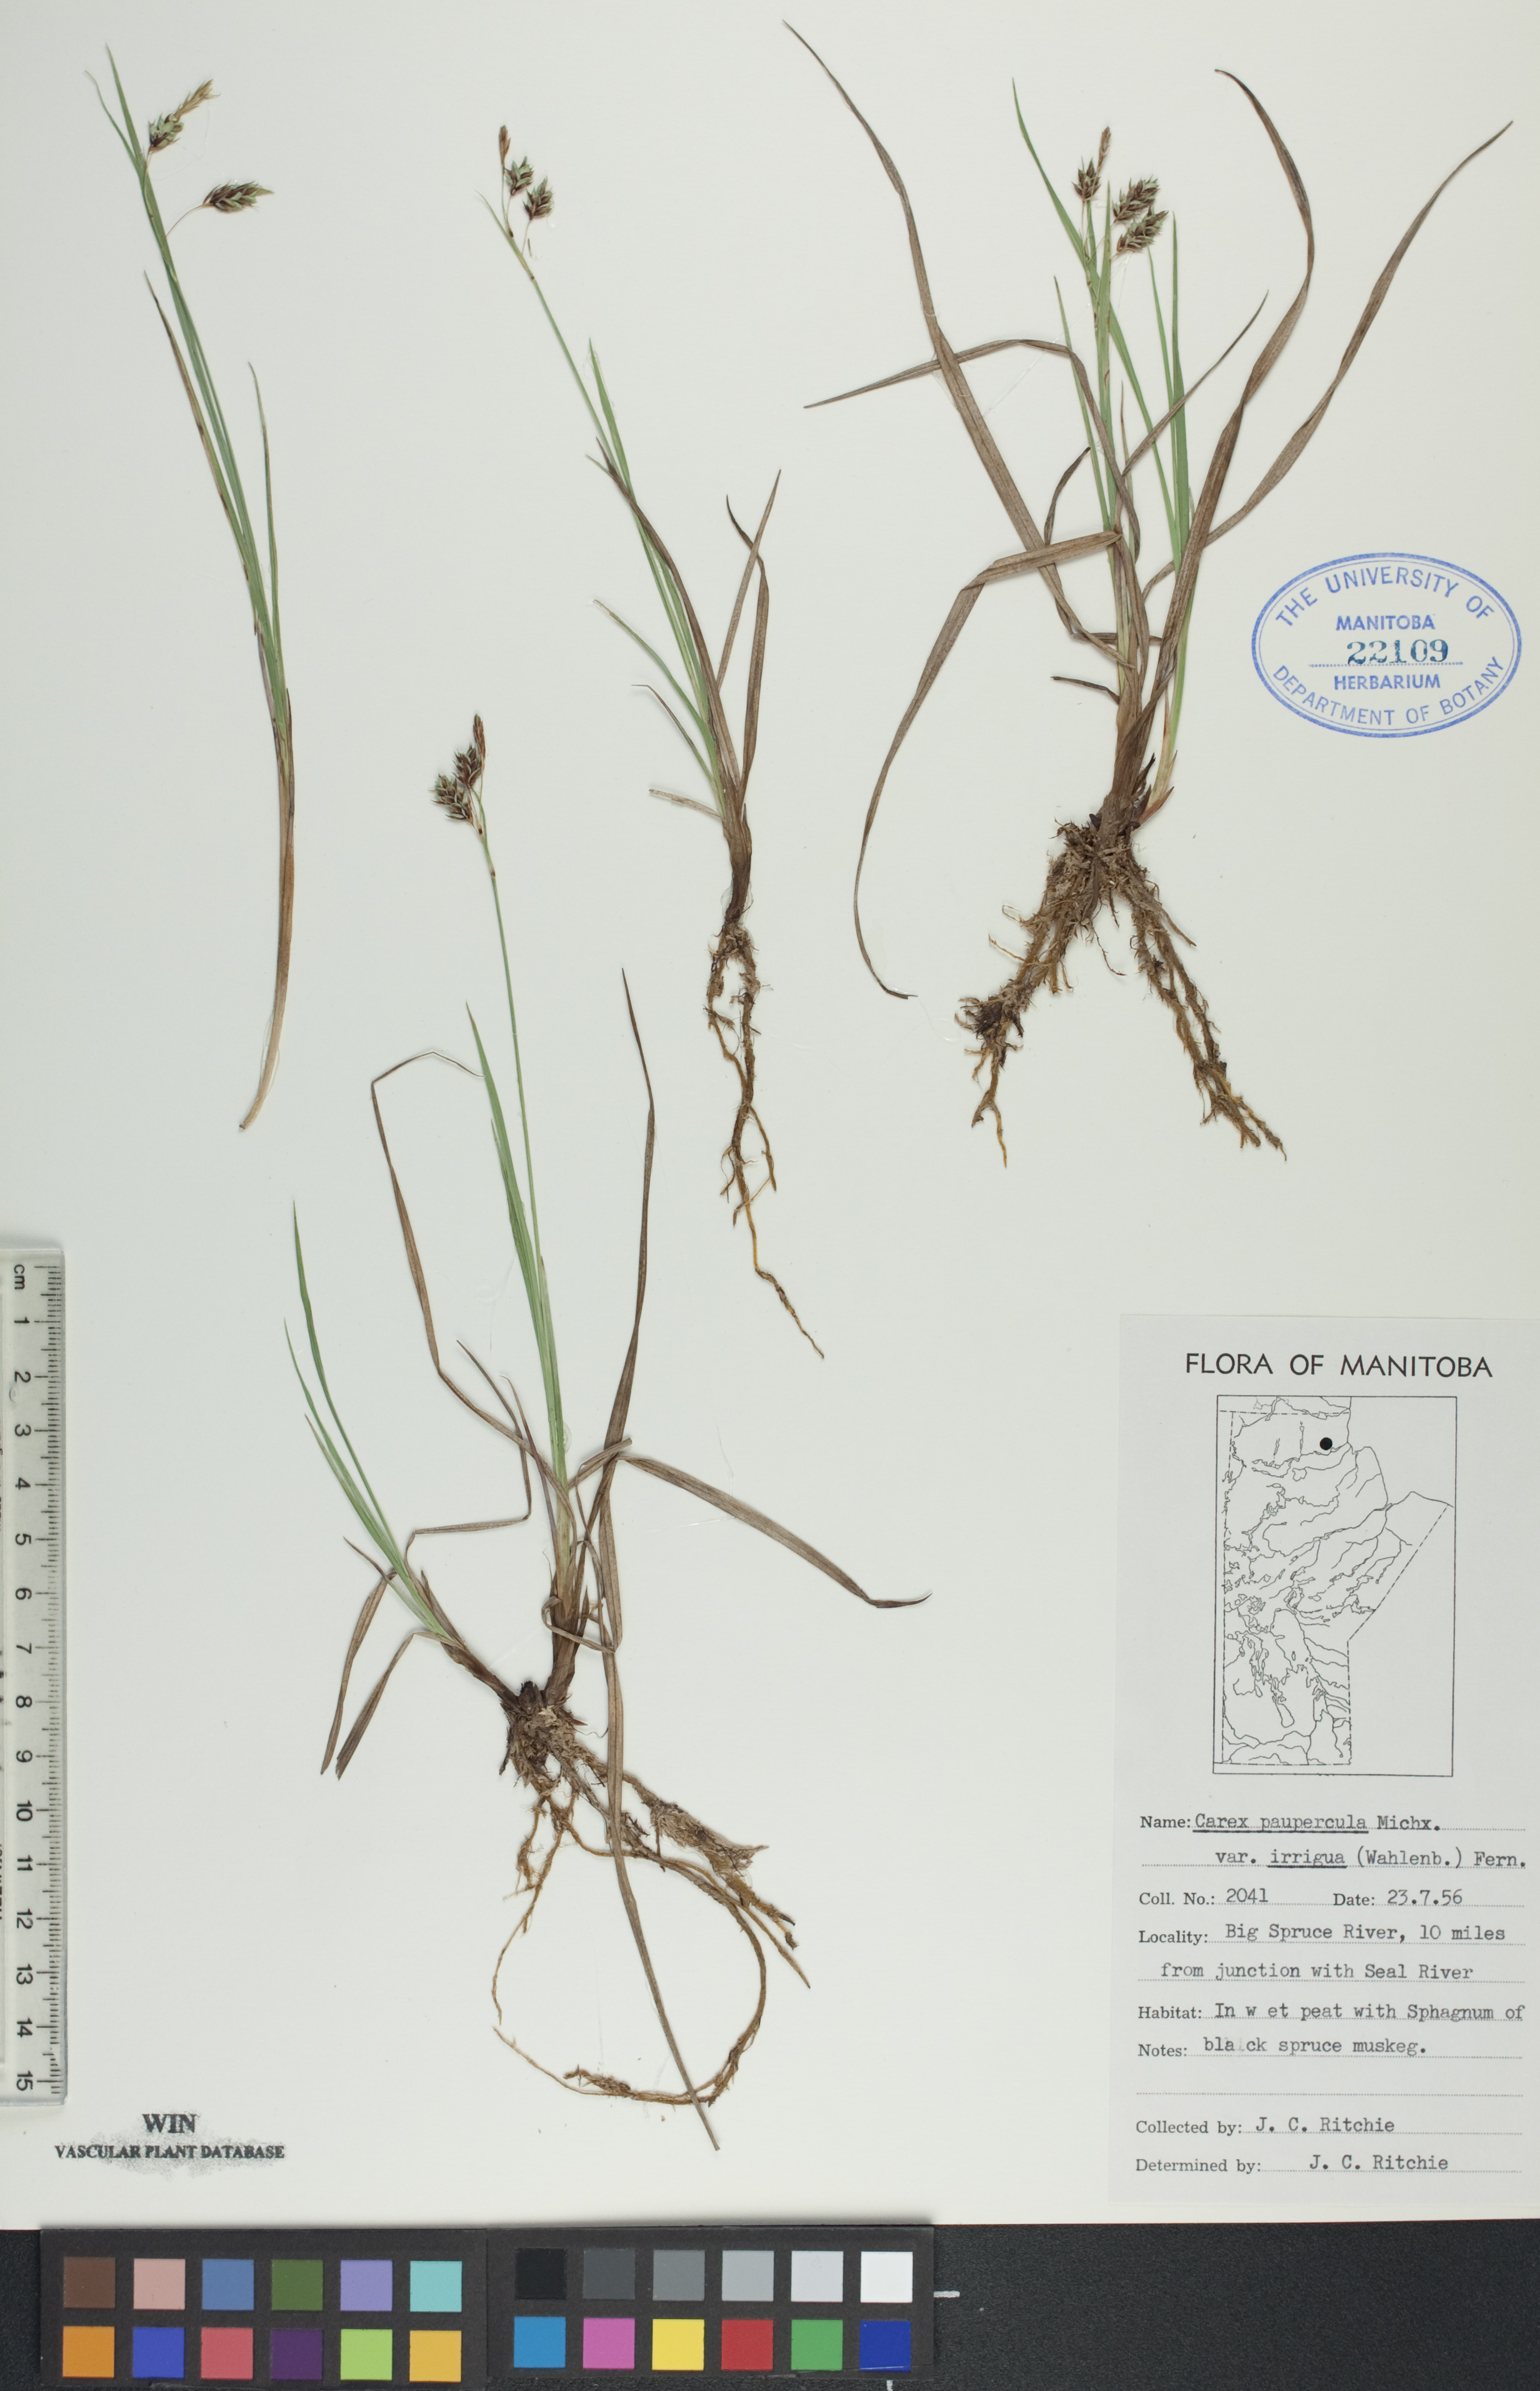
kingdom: Plantae
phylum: Tracheophyta
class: Liliopsida
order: Poales
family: Cyperaceae
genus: Carex
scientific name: Carex magellanica
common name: Bog sedge
